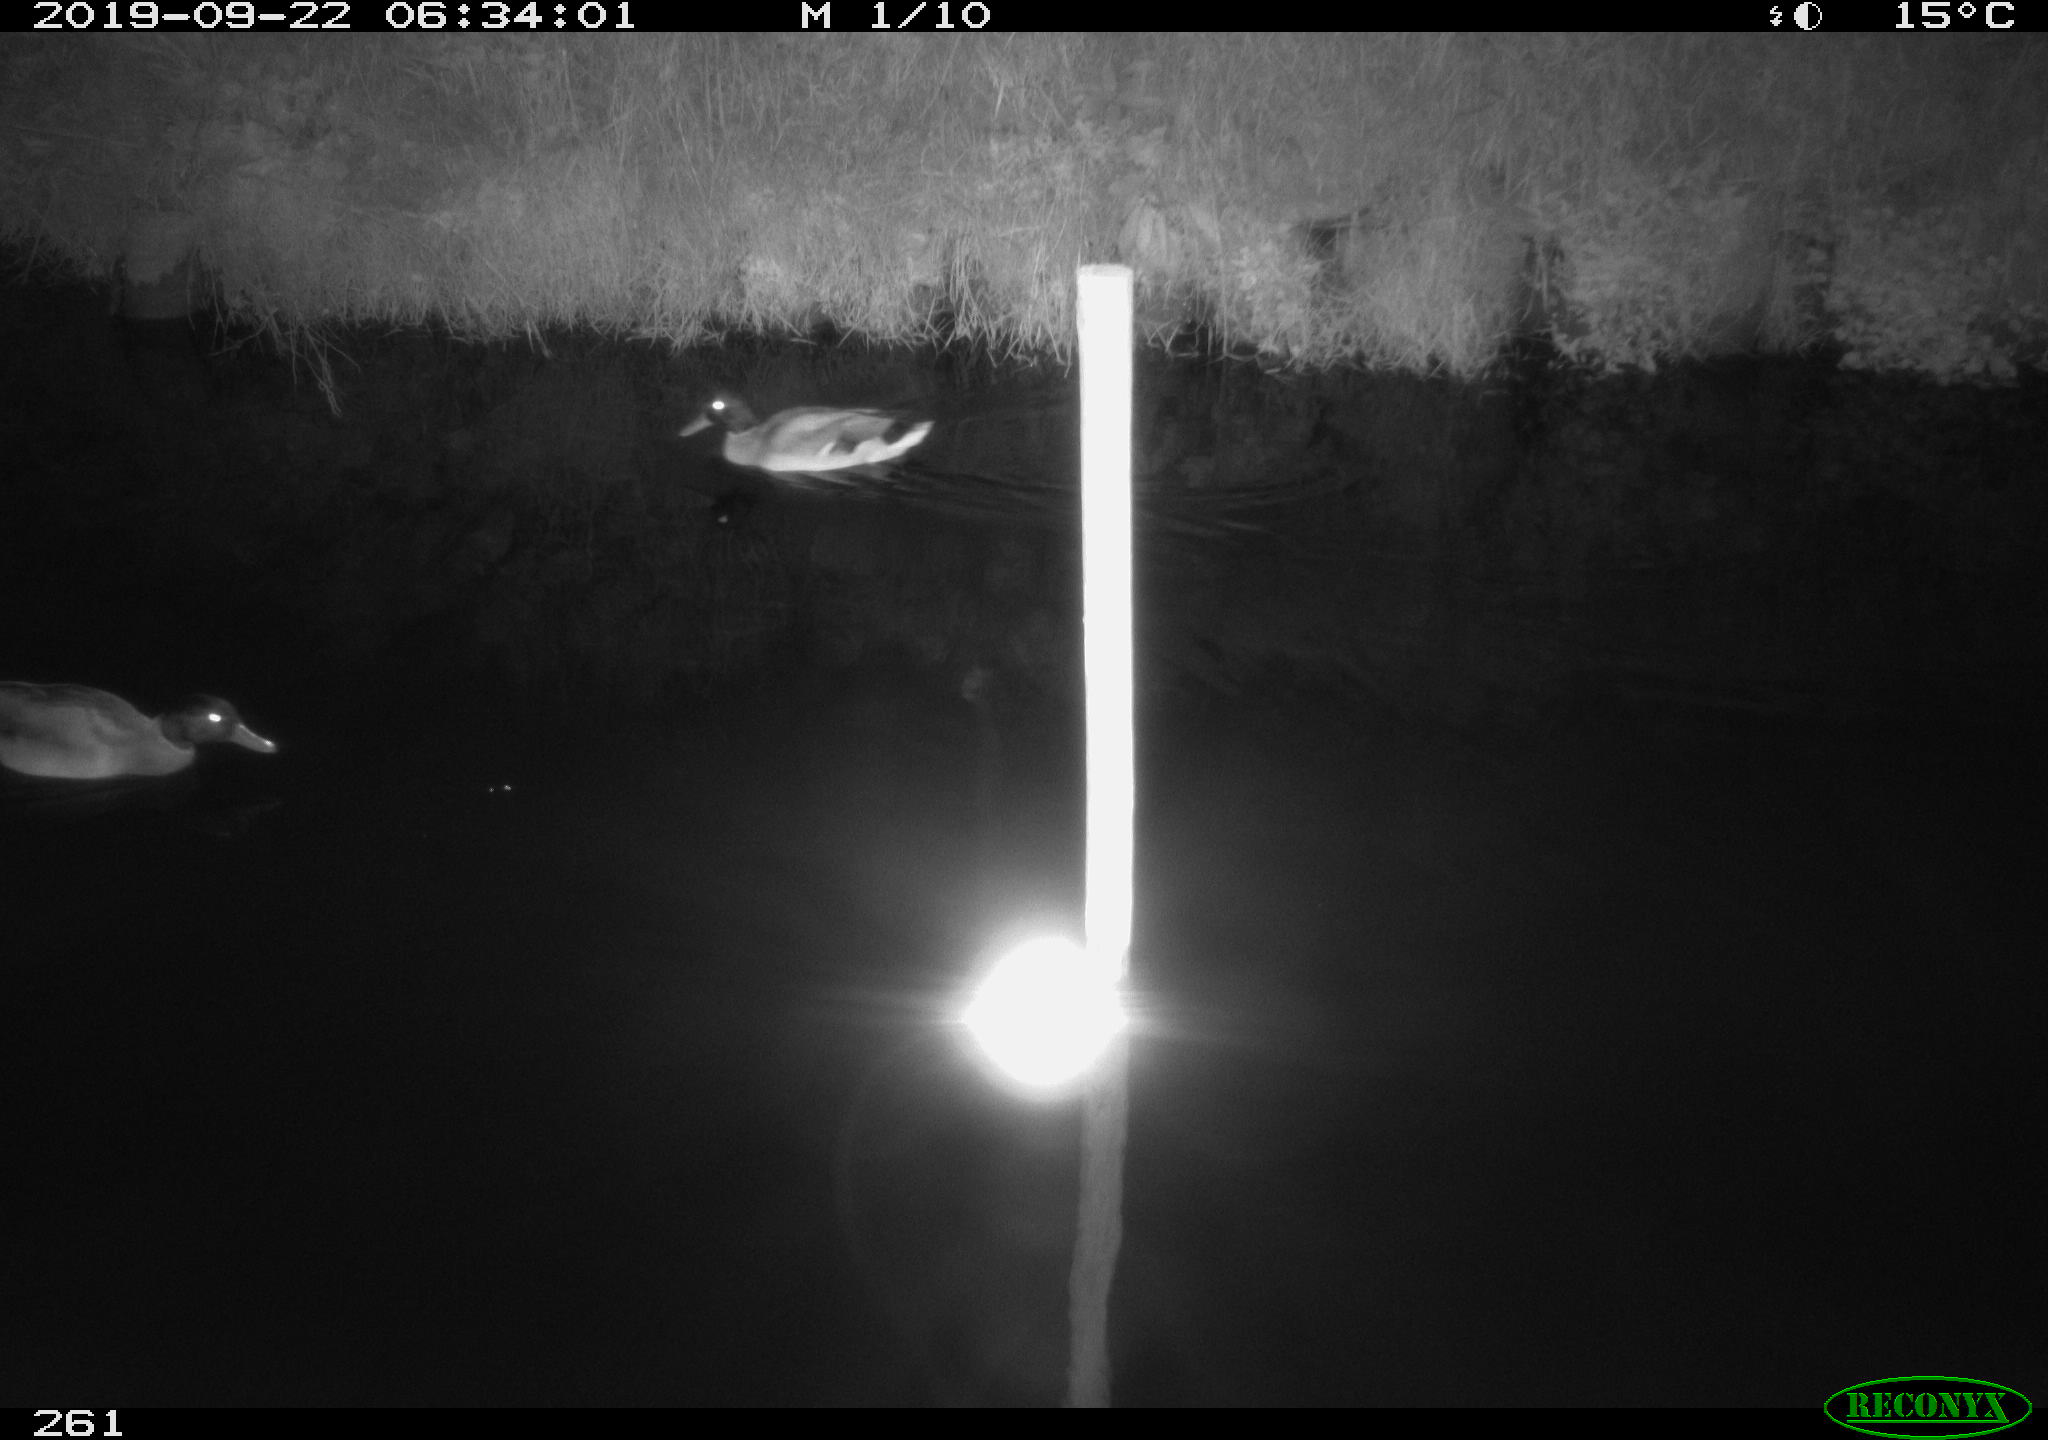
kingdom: Animalia
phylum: Chordata
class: Aves
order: Anseriformes
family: Anatidae
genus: Anas
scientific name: Anas platyrhynchos
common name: Mallard
